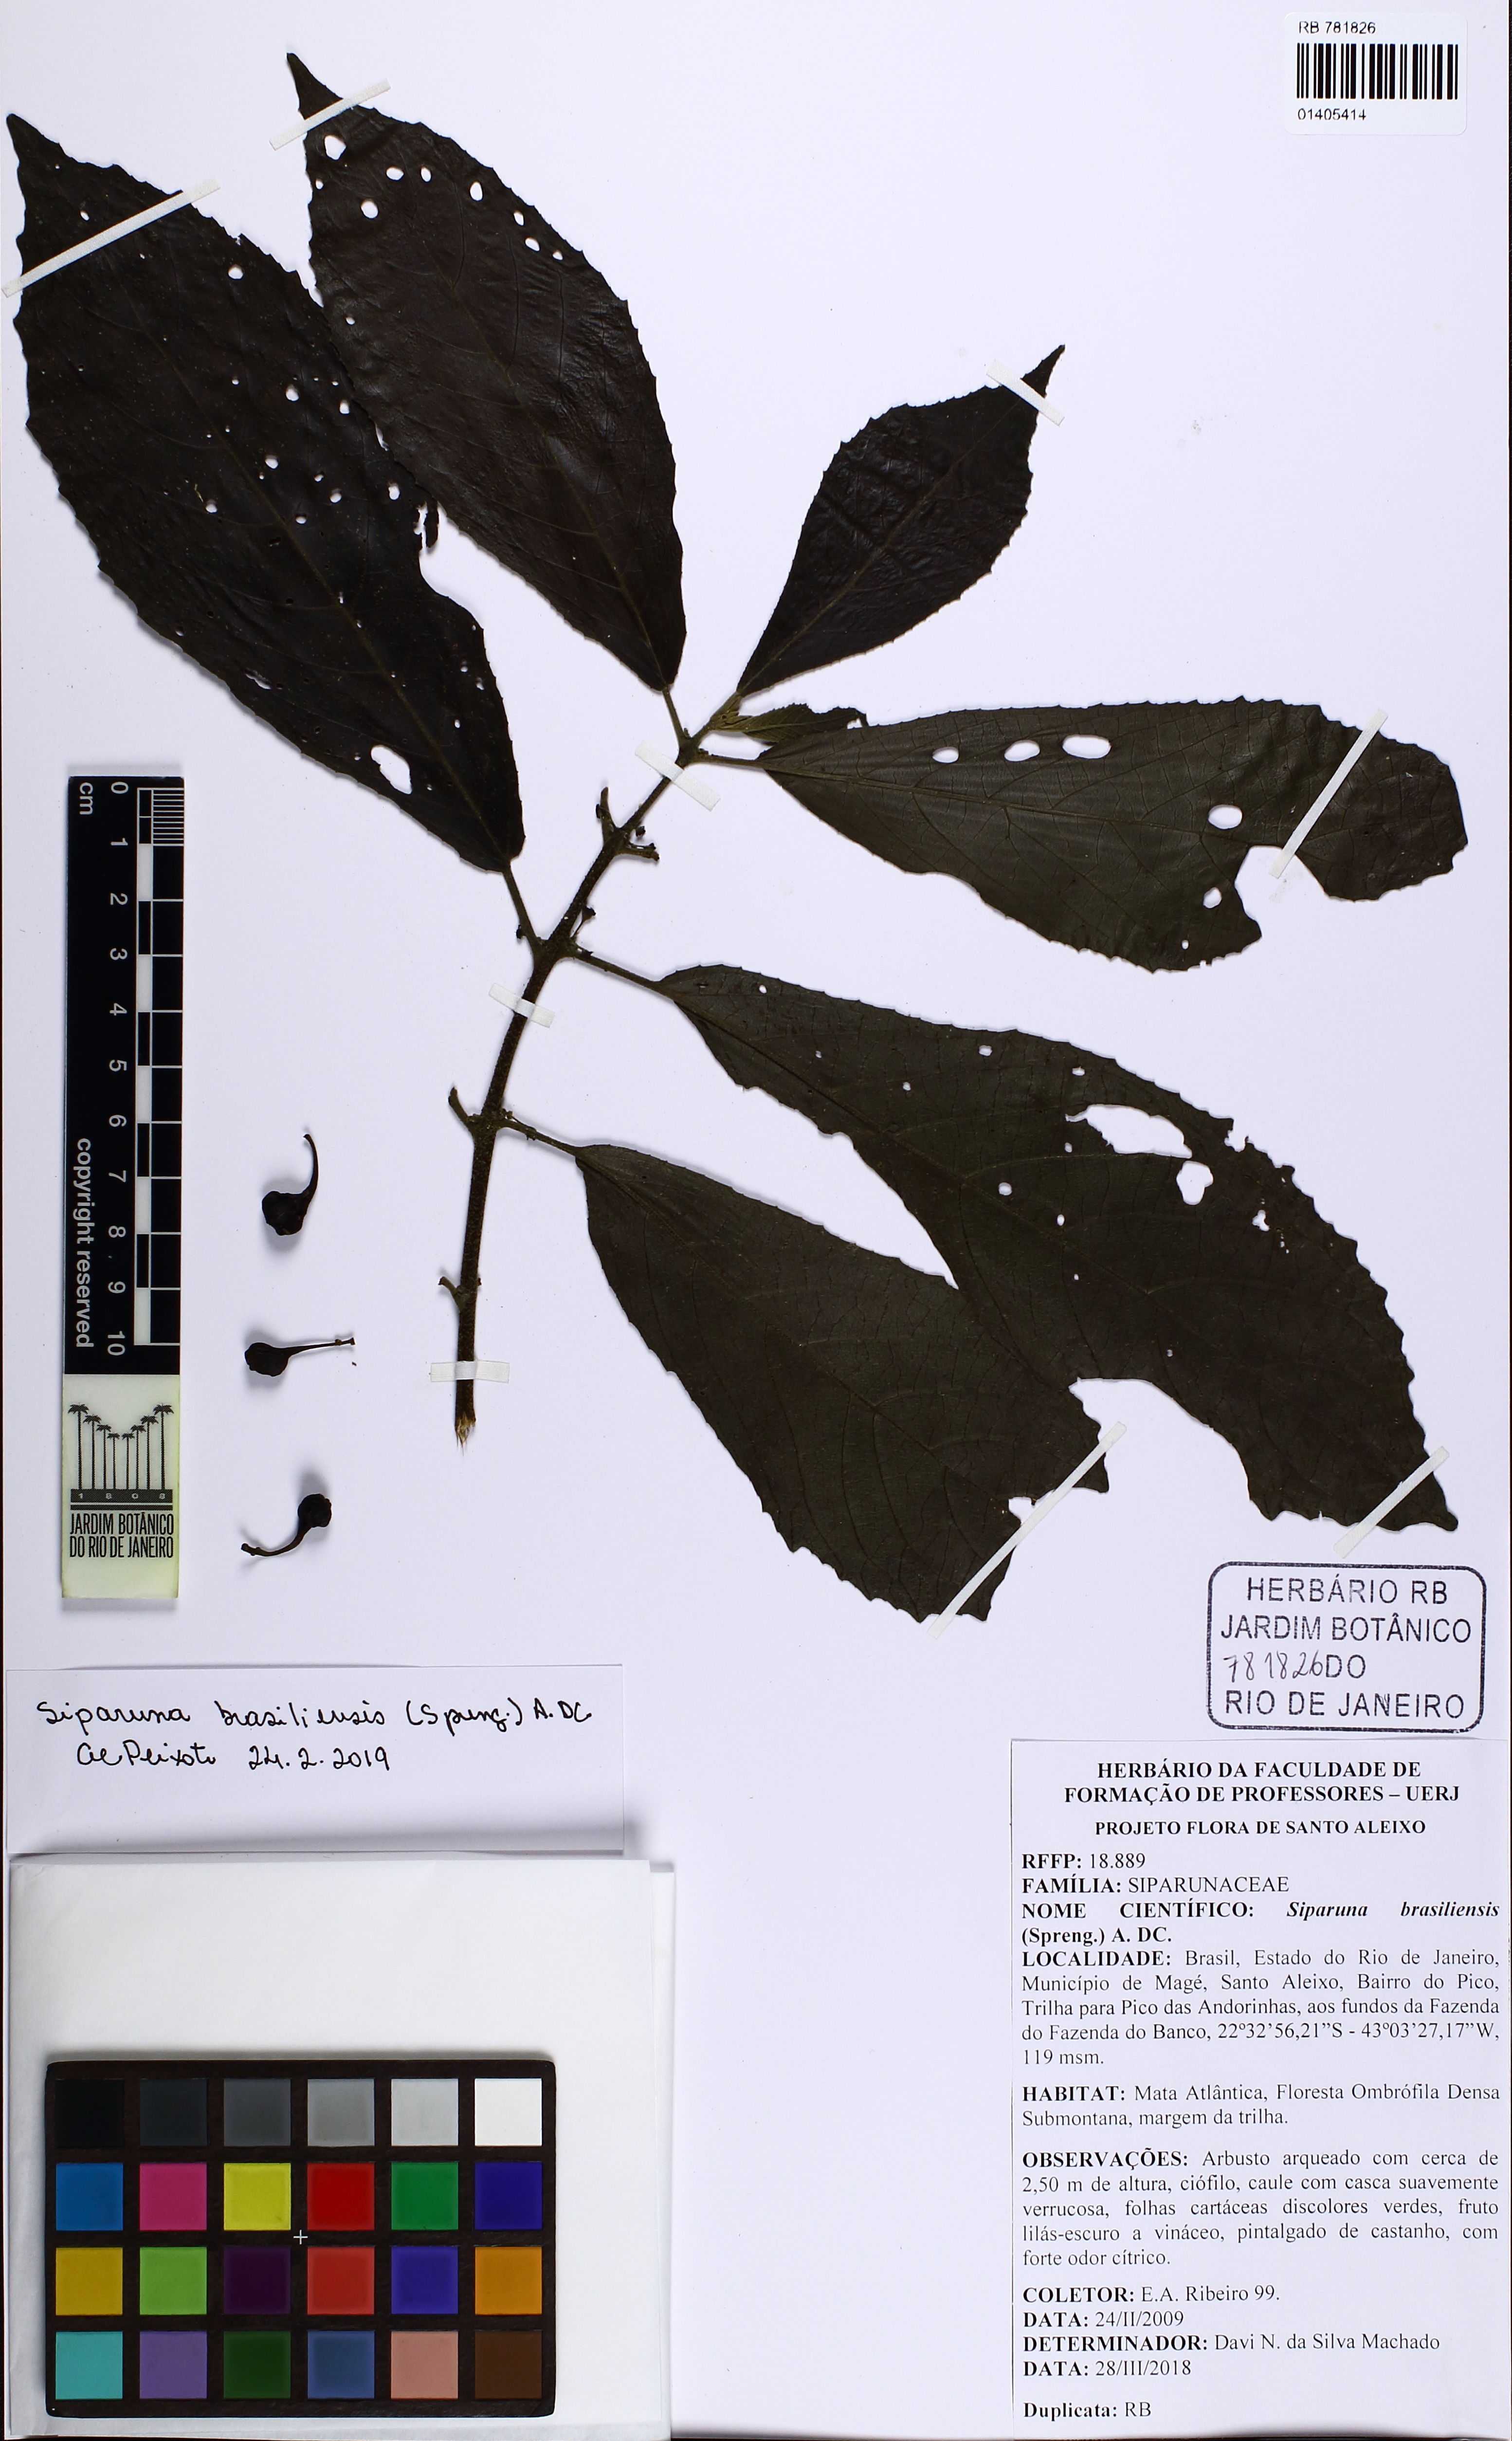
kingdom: Plantae
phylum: Tracheophyta
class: Magnoliopsida
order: Laurales
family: Siparunaceae
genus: Siparuna
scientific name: Siparuna brasiliensis
